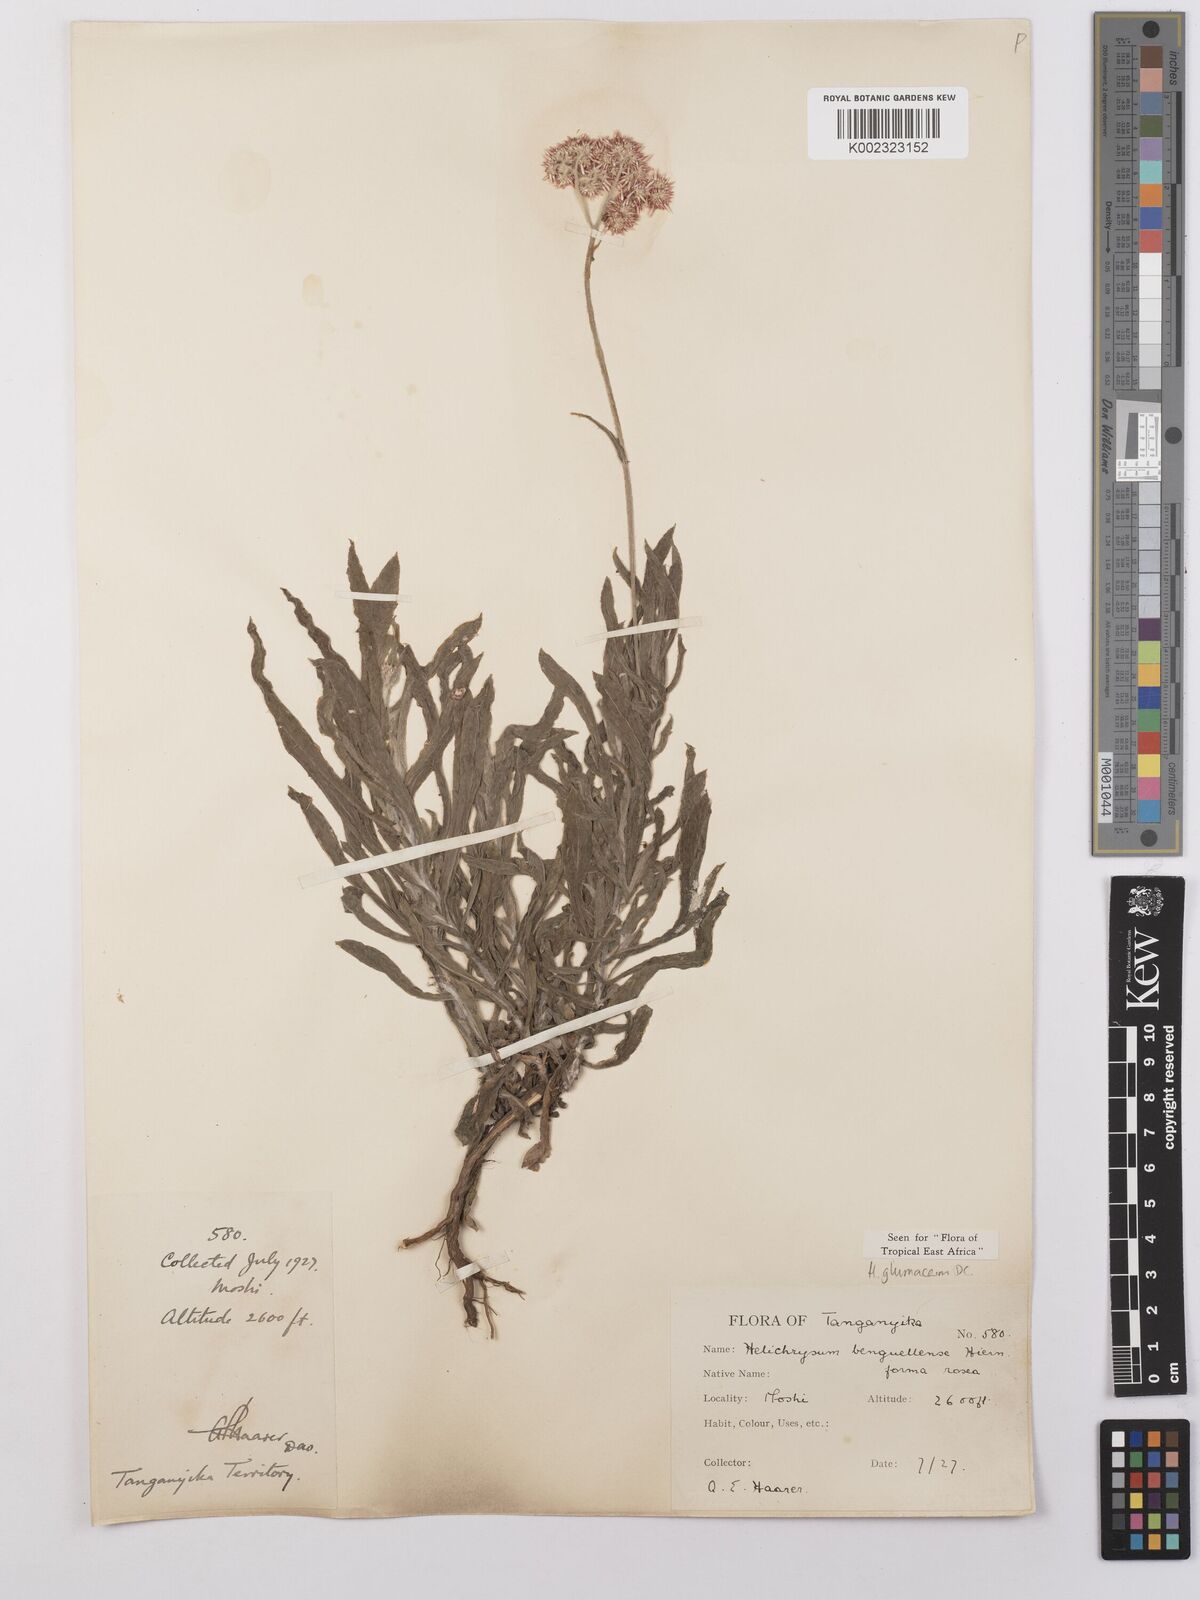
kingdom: Plantae
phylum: Tracheophyta
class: Magnoliopsida
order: Asterales
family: Asteraceae
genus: Helichrysum
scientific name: Helichrysum glumaceum
